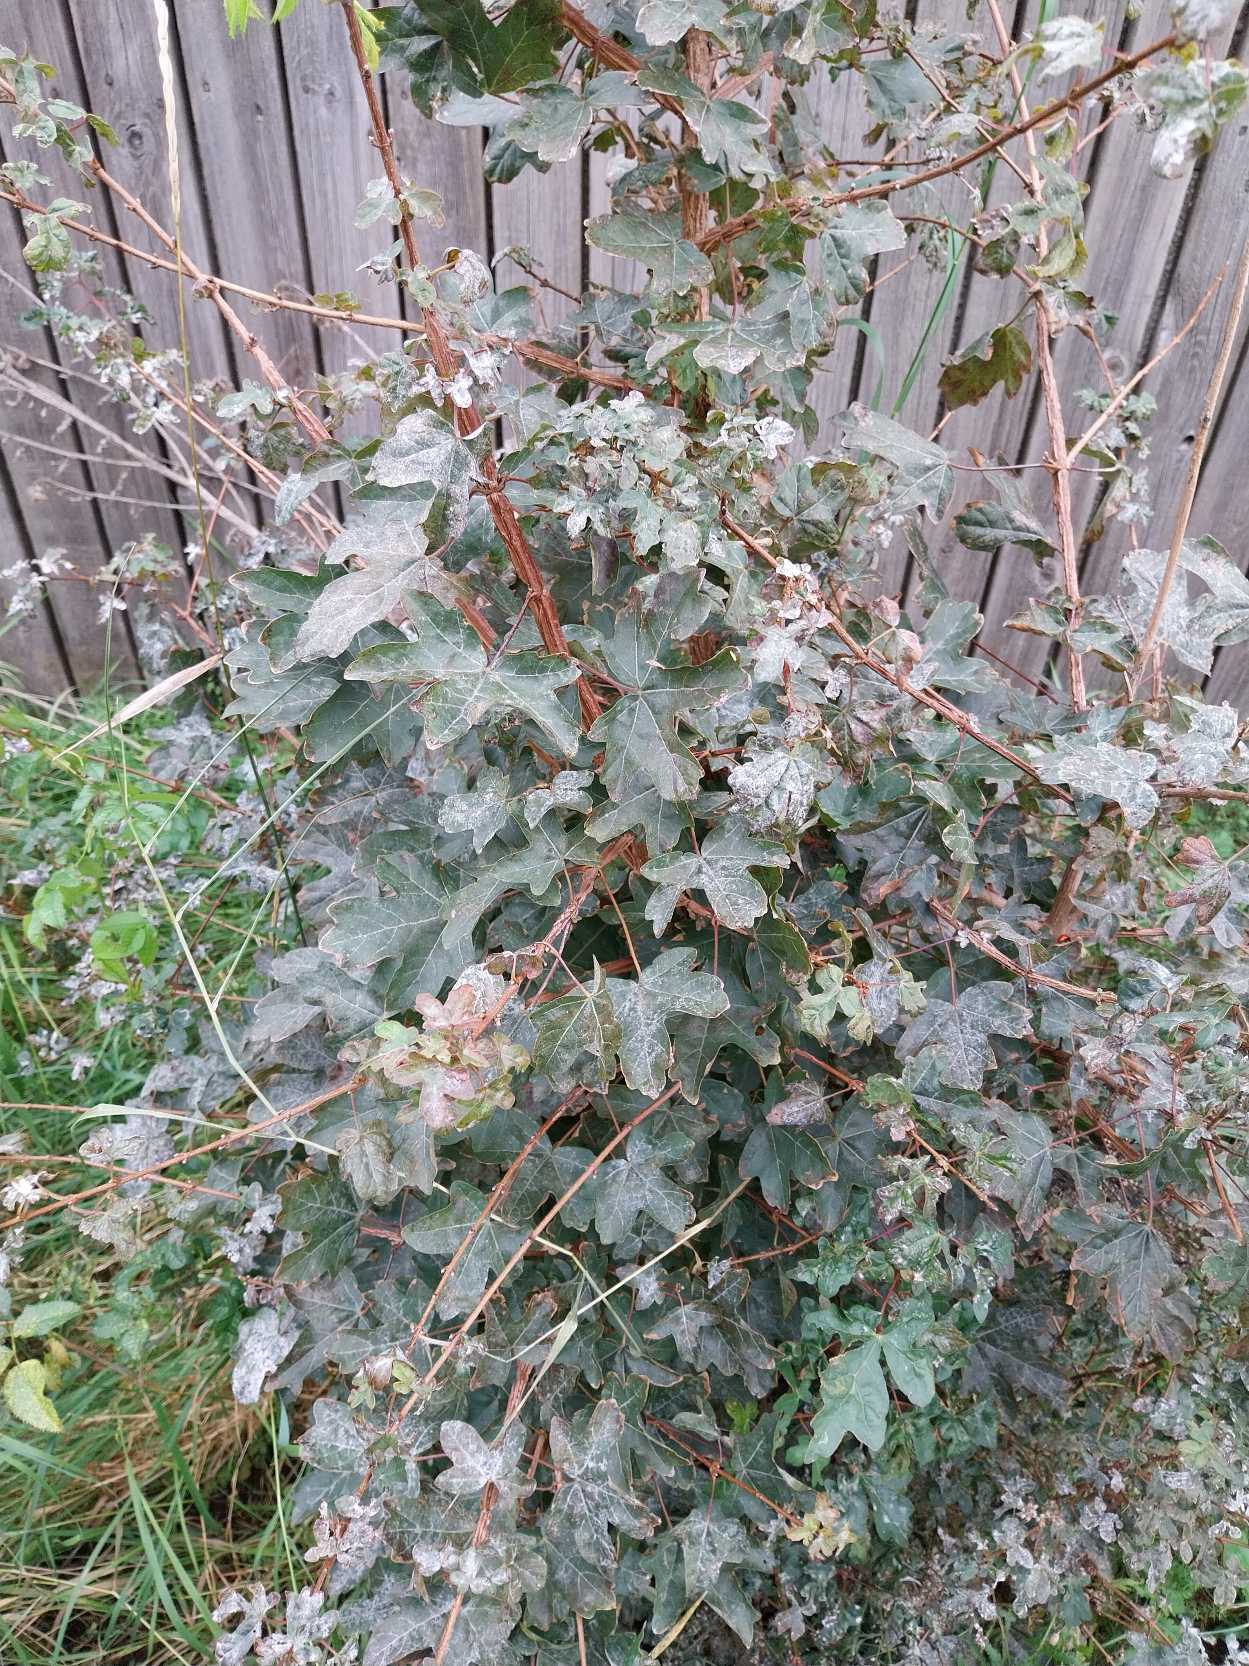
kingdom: Plantae
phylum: Tracheophyta
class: Magnoliopsida
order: Sapindales
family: Sapindaceae
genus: Acer
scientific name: Acer campestre
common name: Navr
